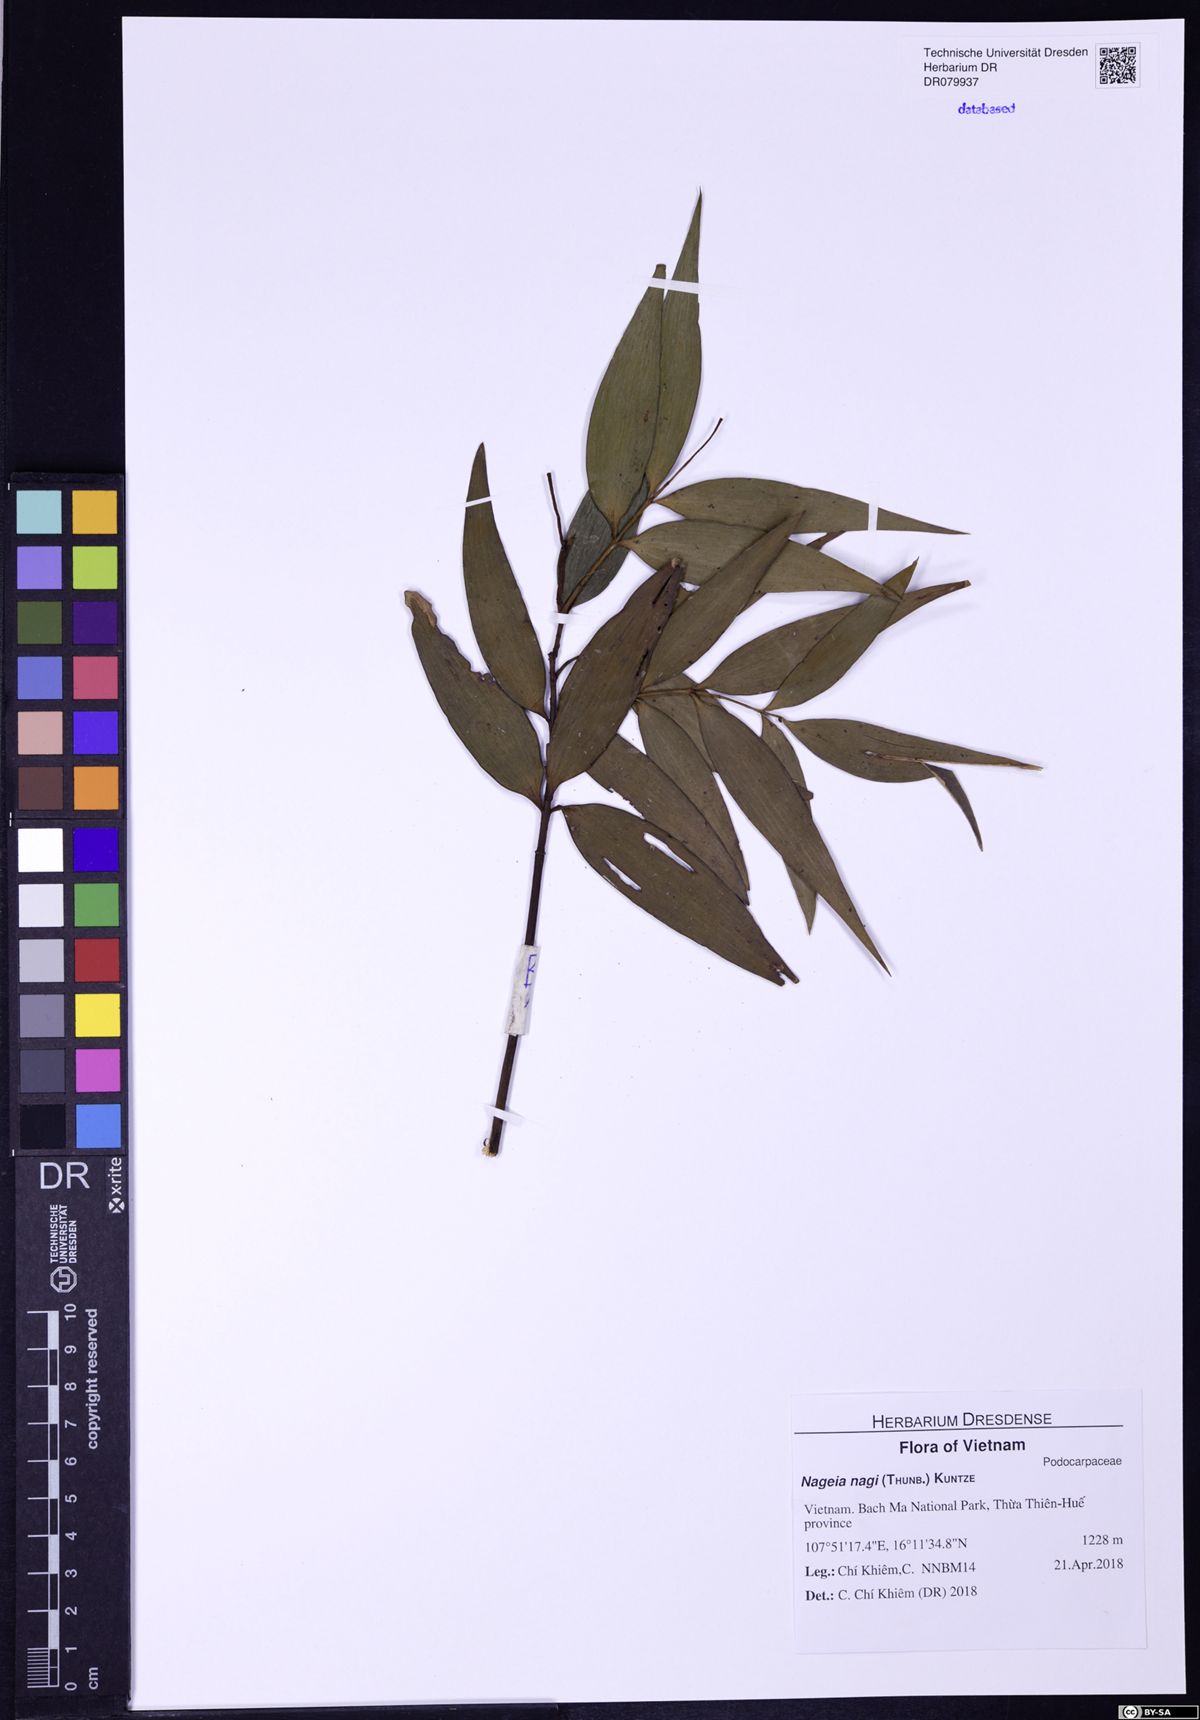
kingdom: Plantae
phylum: Tracheophyta
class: Pinopsida
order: Pinales
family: Podocarpaceae
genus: Nageia
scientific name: Nageia nagi
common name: Kaphal
